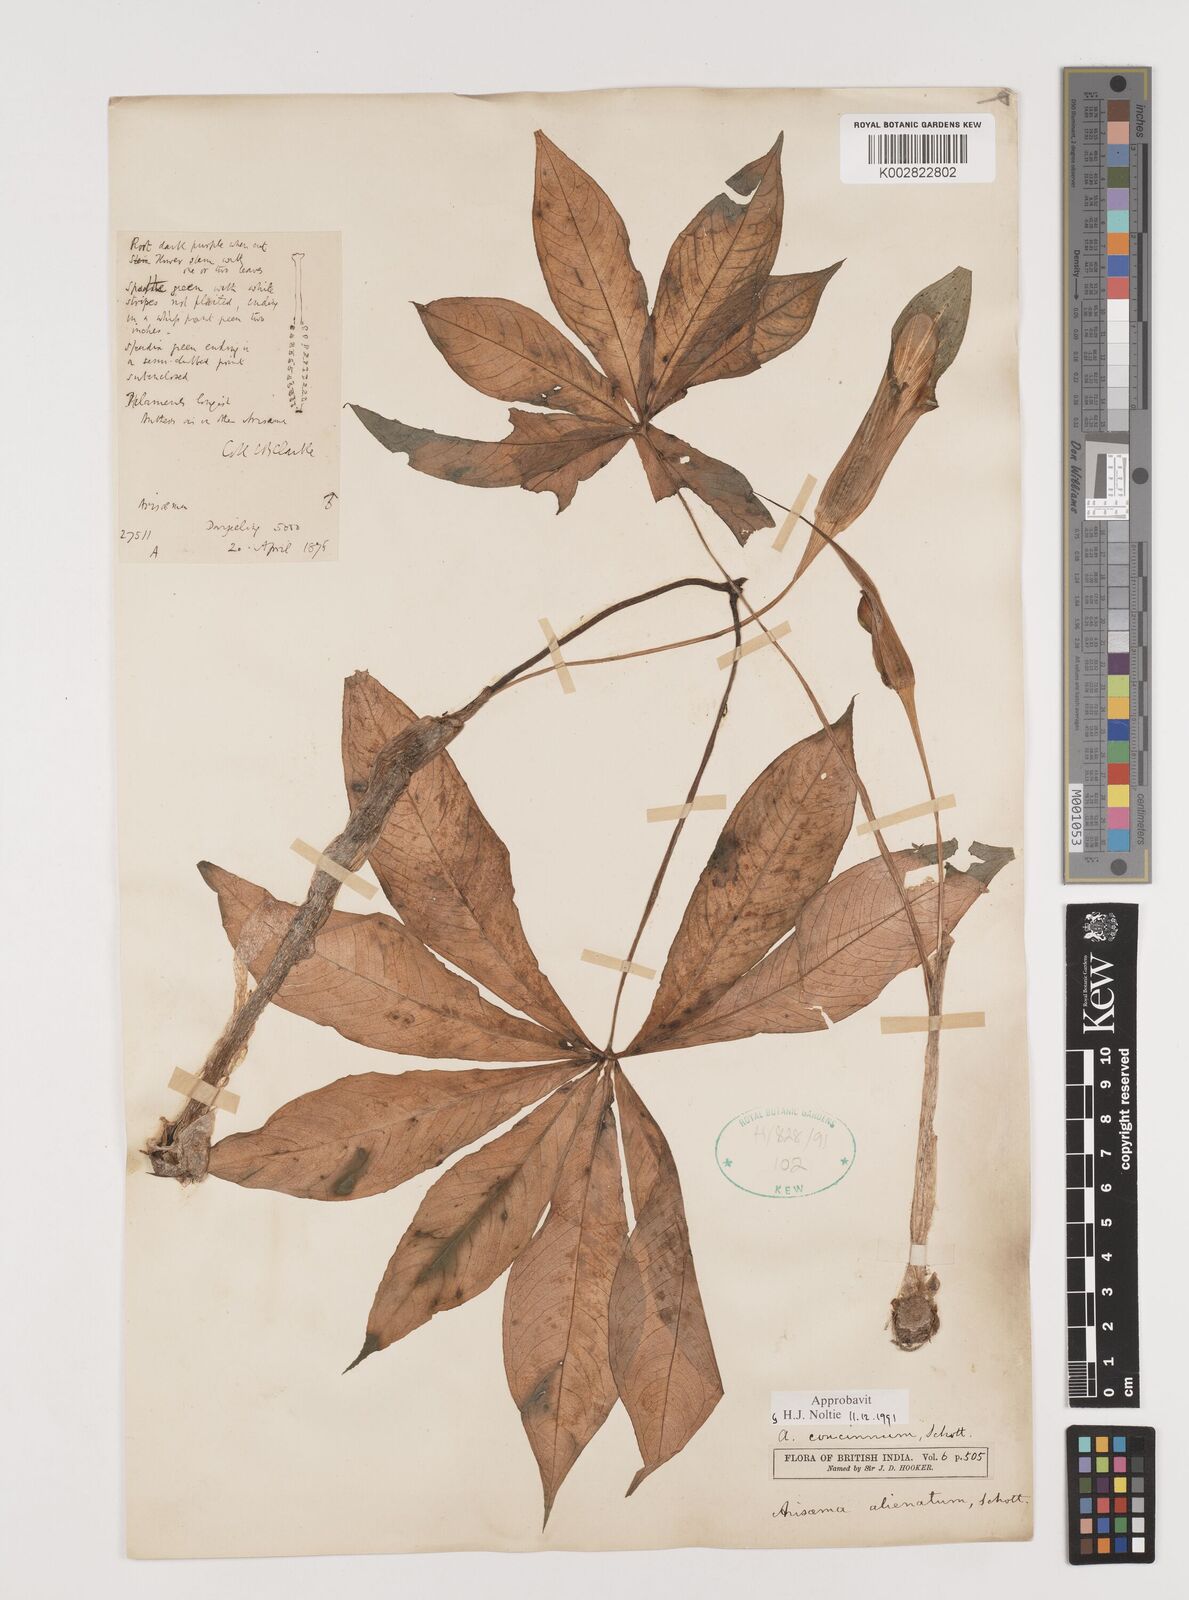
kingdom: Plantae
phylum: Tracheophyta
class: Liliopsida
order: Alismatales
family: Araceae
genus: Arisaema
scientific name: Arisaema concinnum
